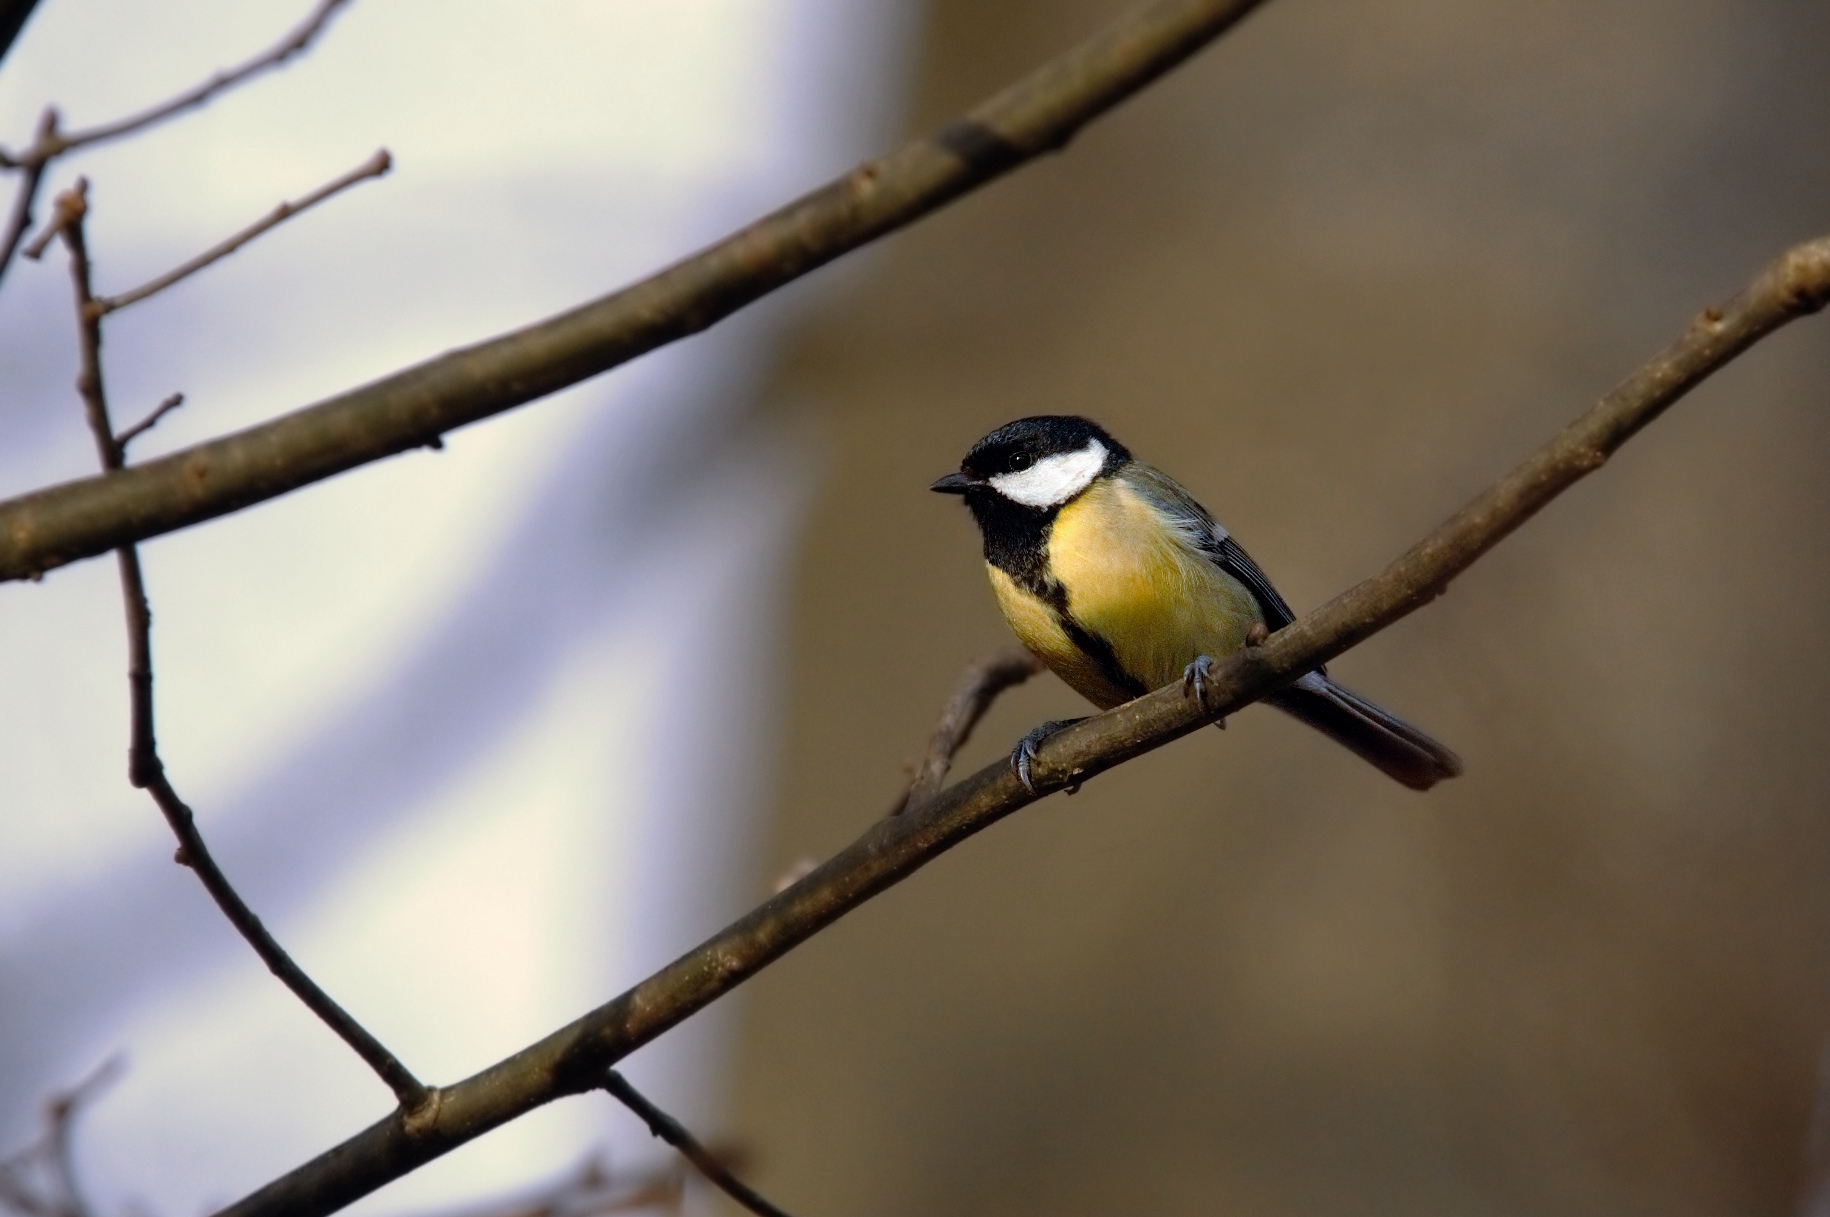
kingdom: Animalia
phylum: Chordata
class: Aves
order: Passeriformes
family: Paridae
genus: Parus
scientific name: Parus major
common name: Musvit
